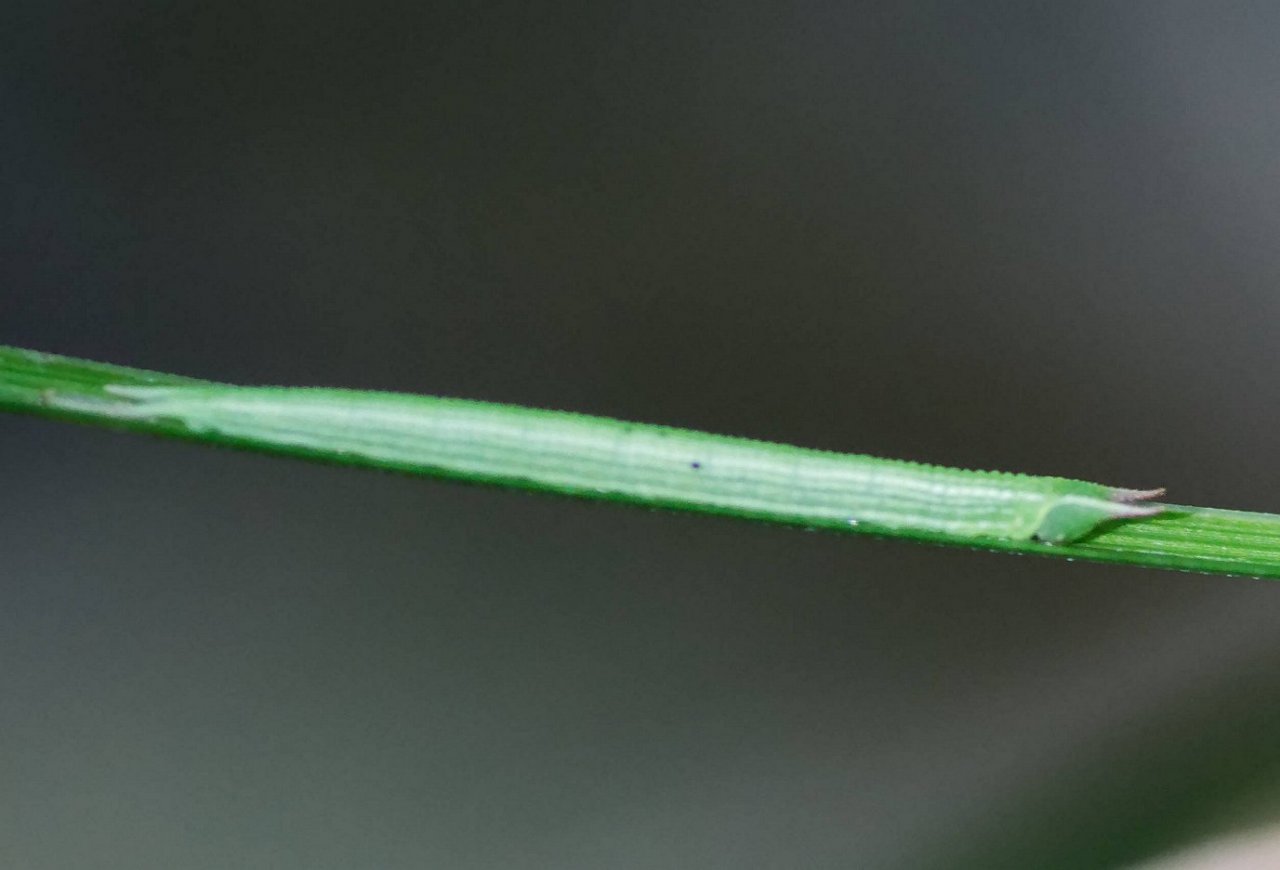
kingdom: Animalia
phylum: Arthropoda
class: Insecta
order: Lepidoptera
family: Nymphalidae
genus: Lethe
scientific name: Lethe eurydice
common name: Appalachian Eyed Brown
